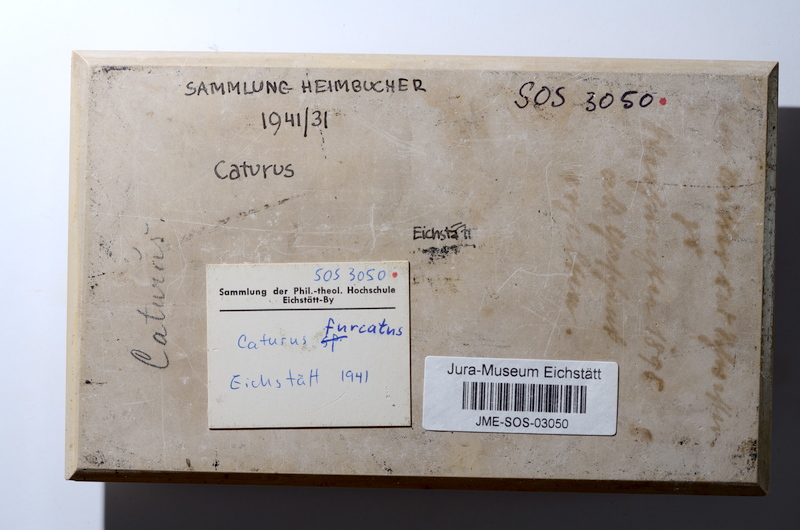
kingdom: Animalia
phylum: Chordata
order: Amiiformes
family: Caturidae
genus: Caturus
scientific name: Caturus furcatus
